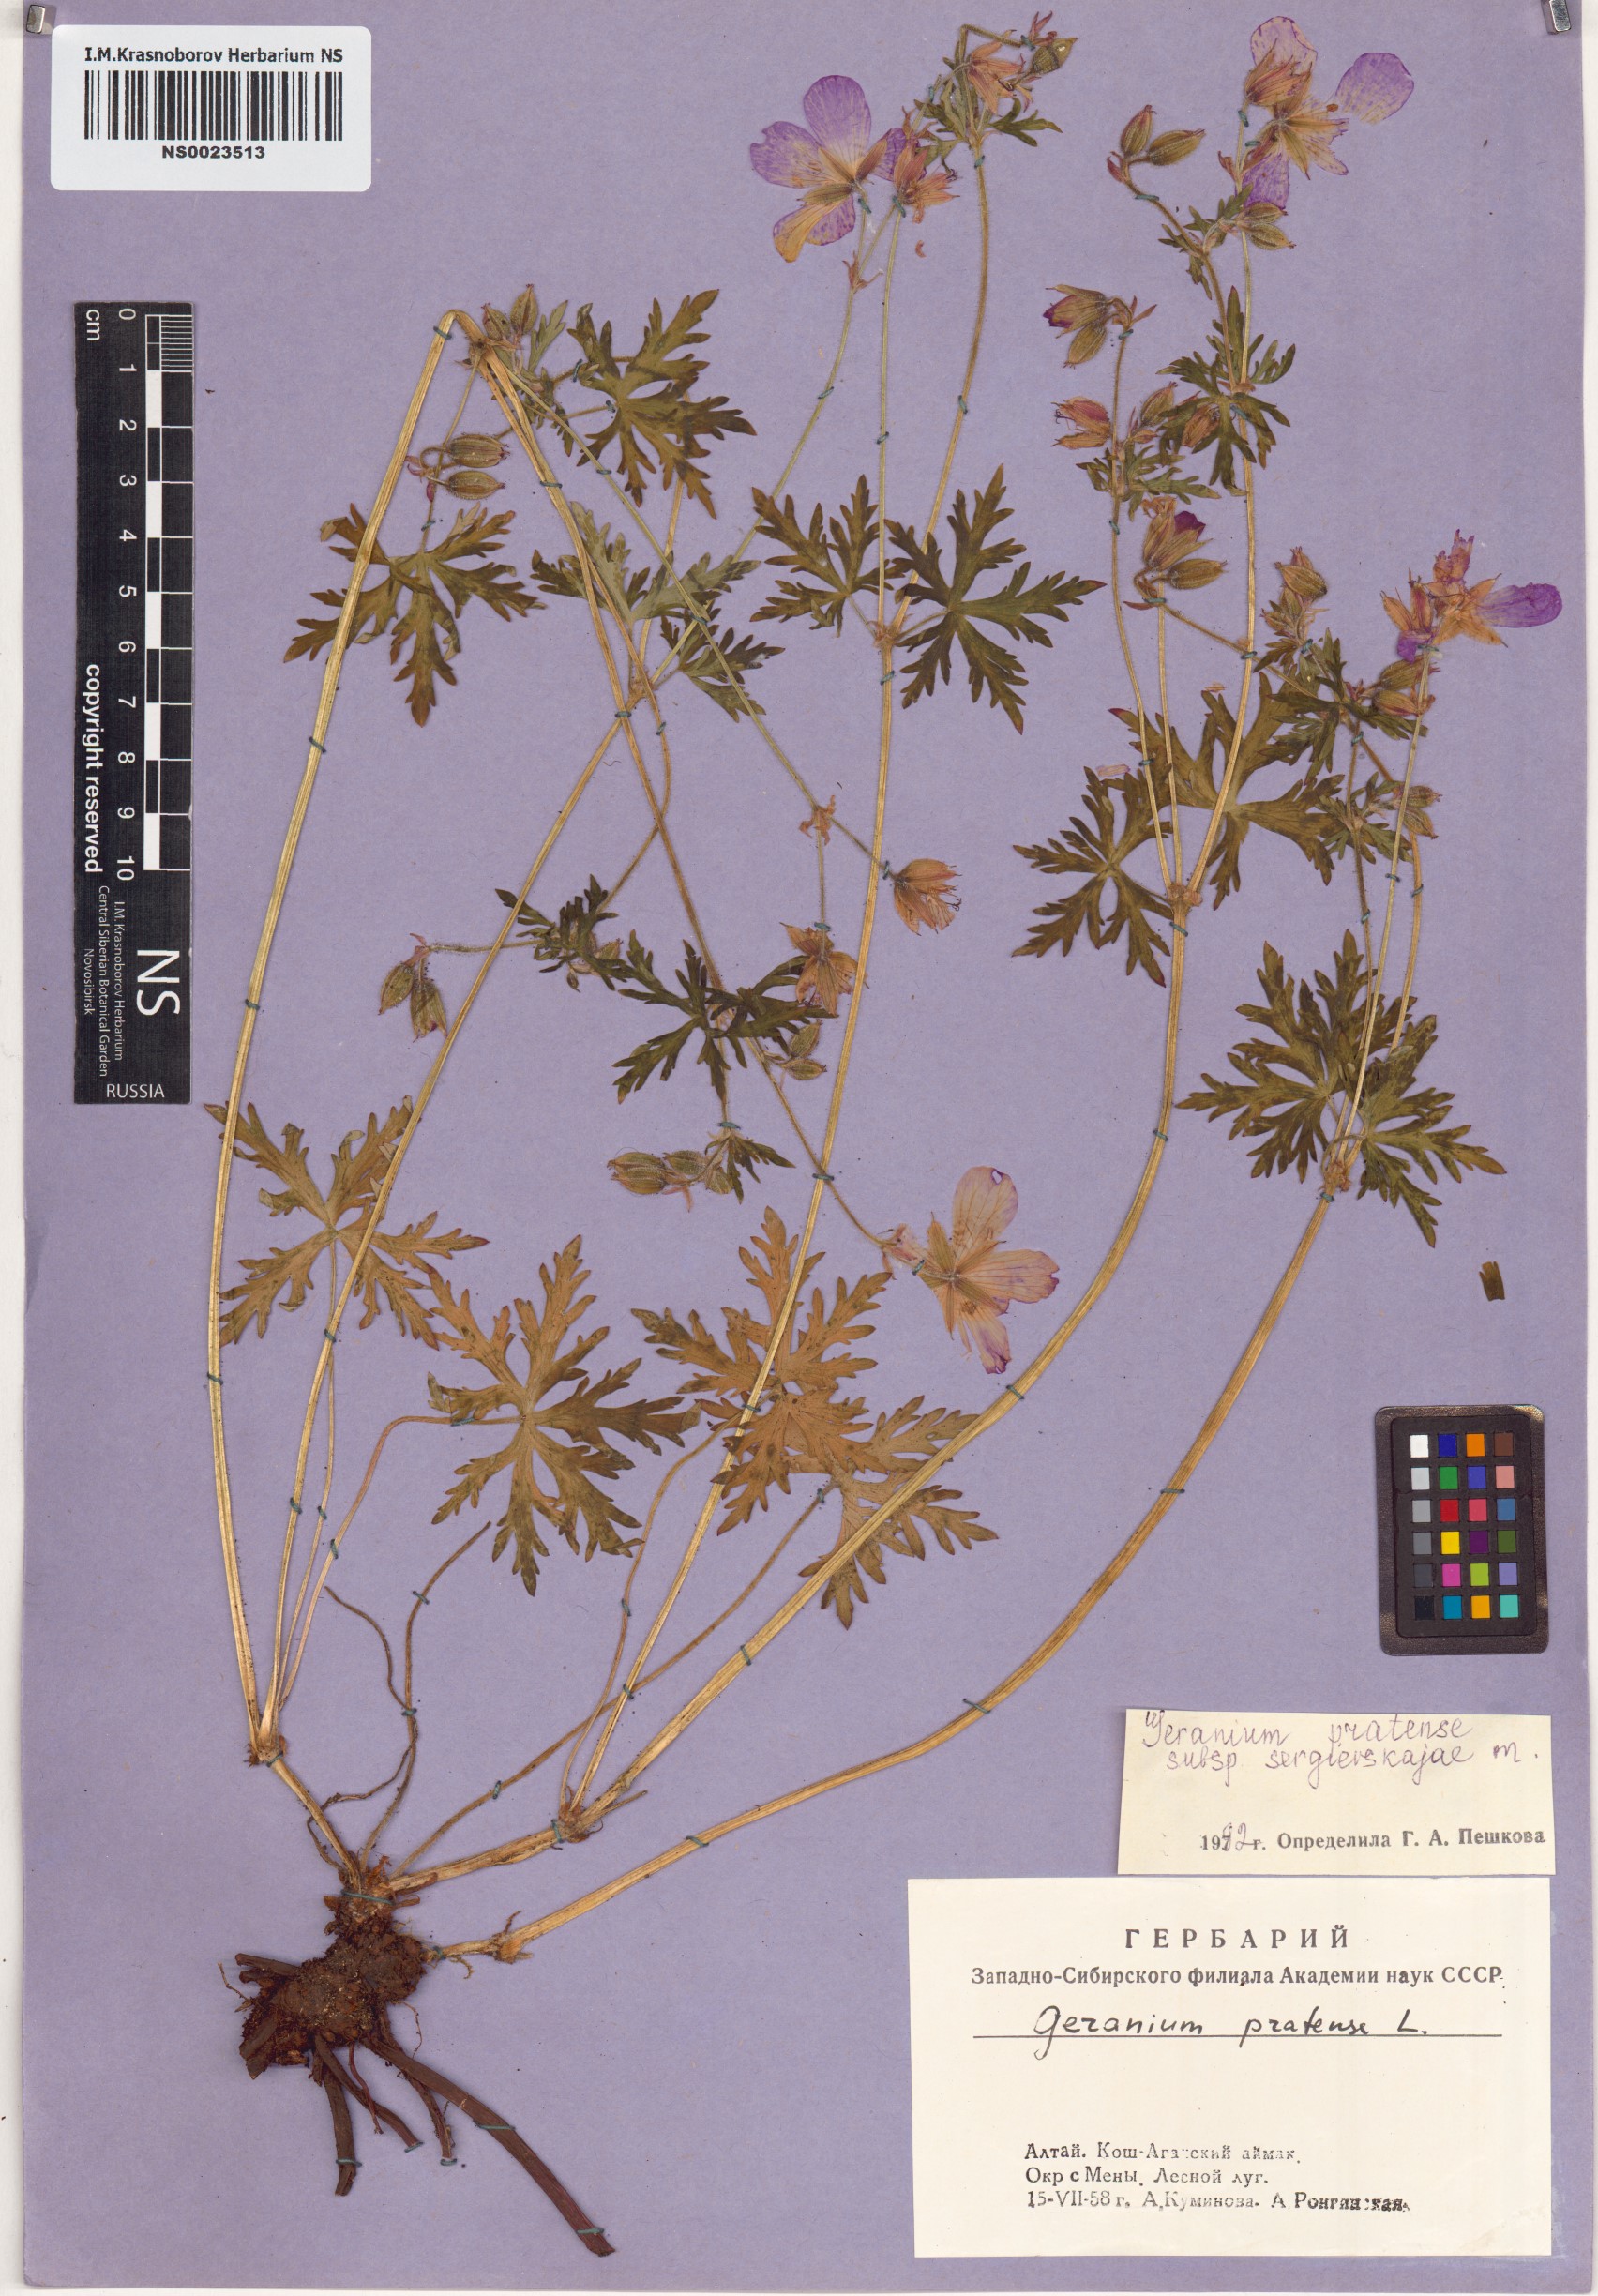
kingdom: Plantae
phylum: Tracheophyta
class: Magnoliopsida
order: Geraniales
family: Geraniaceae
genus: Geranium
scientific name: Geranium pratense
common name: Meadow crane's-bill
